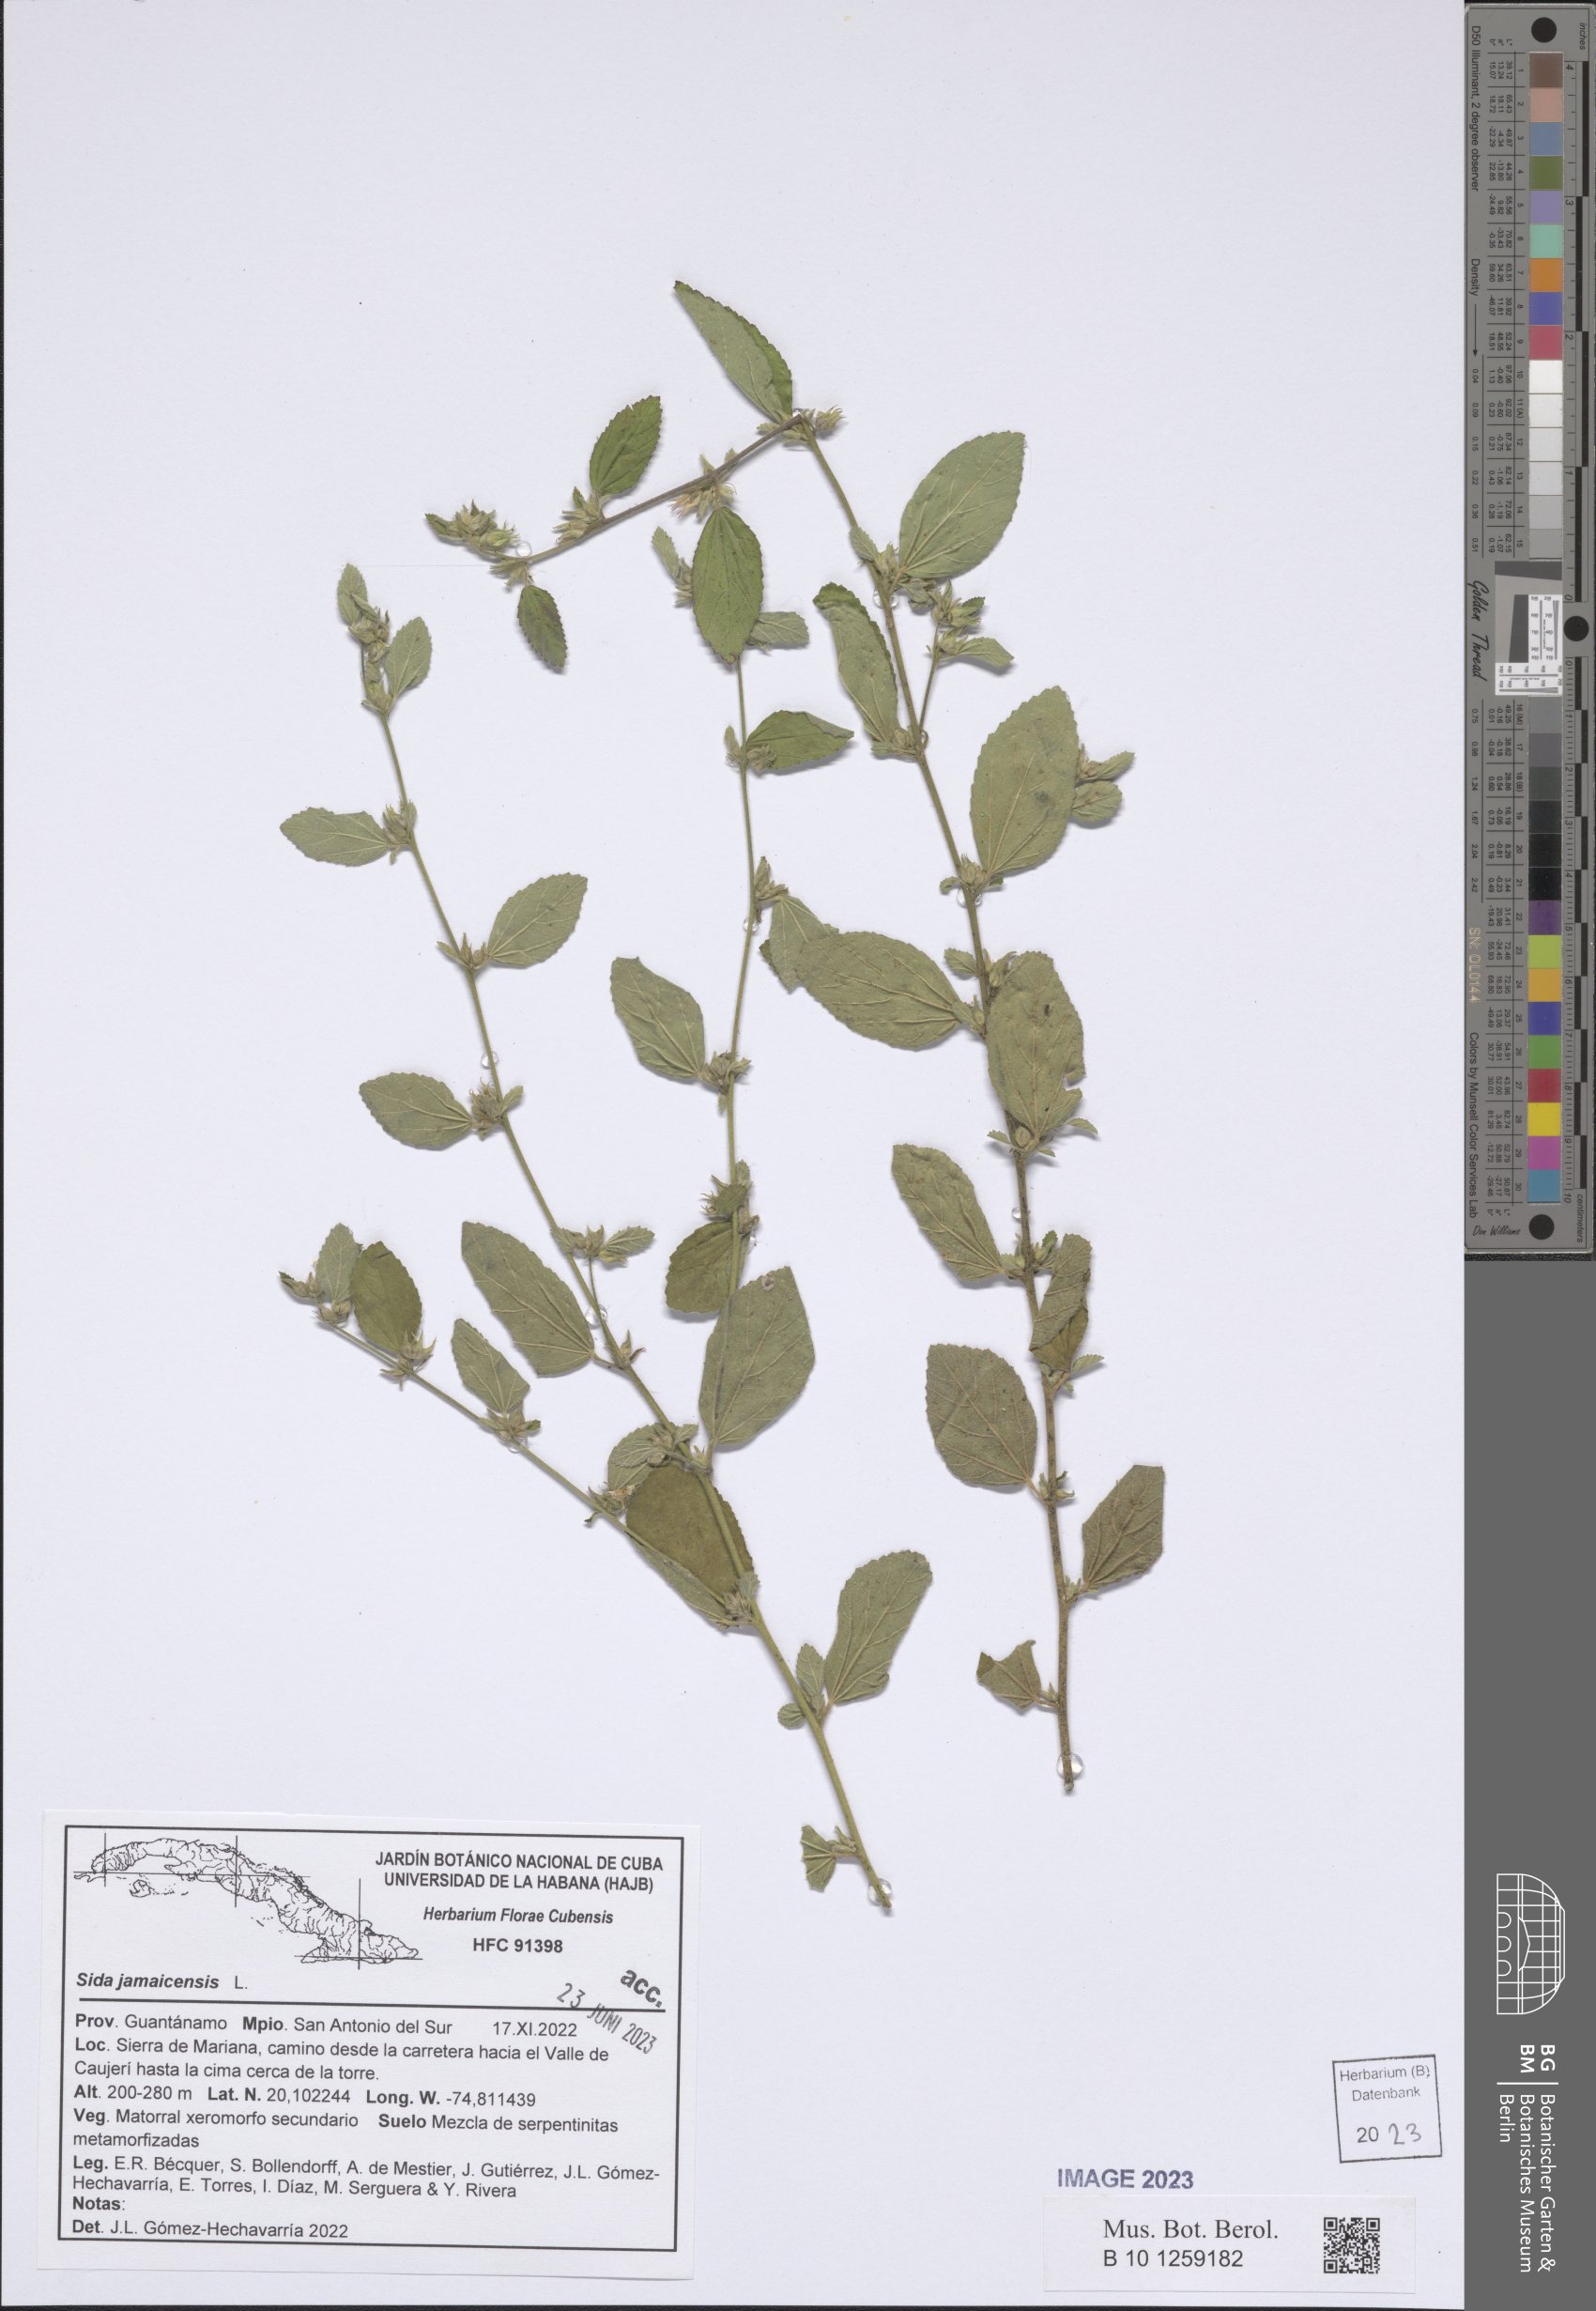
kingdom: Plantae
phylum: Tracheophyta
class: Magnoliopsida
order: Malvales
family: Malvaceae
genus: Sida
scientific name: Sida jamaicensis
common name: Jamaican fanpetals
